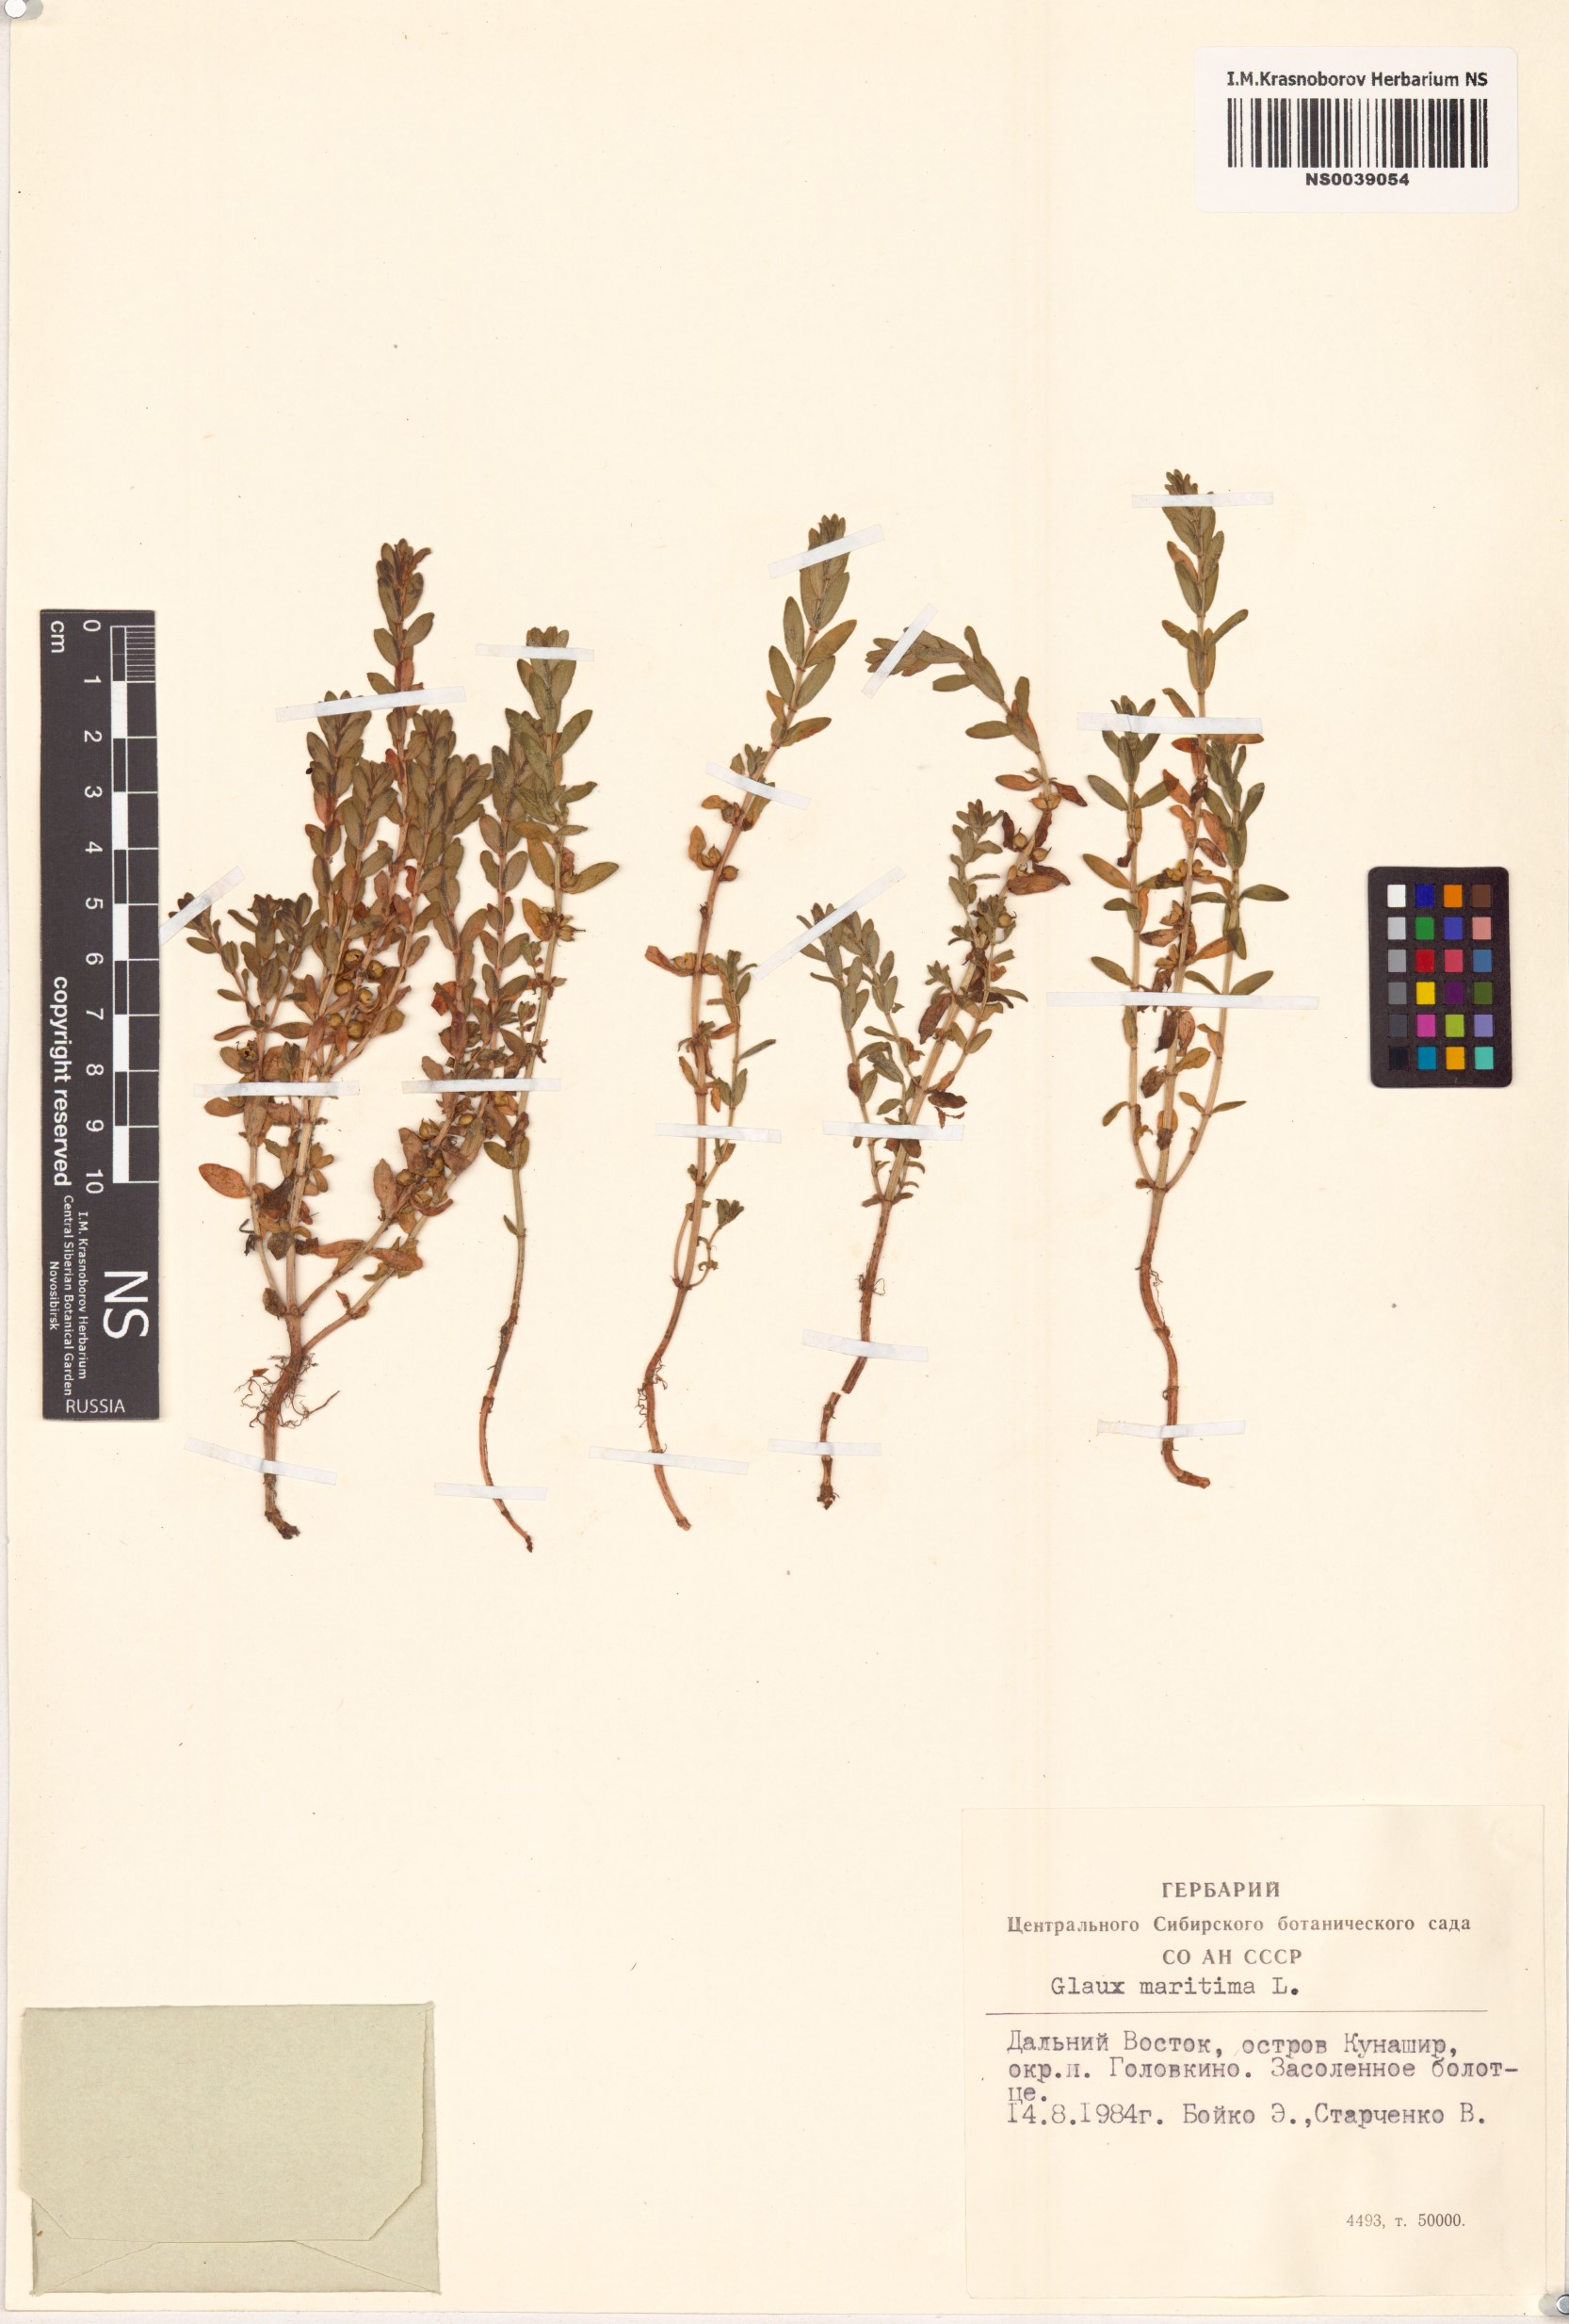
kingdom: Plantae
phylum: Tracheophyta
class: Magnoliopsida
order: Ericales
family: Primulaceae
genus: Lysimachia
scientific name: Lysimachia maritima
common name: Sea milkwort
